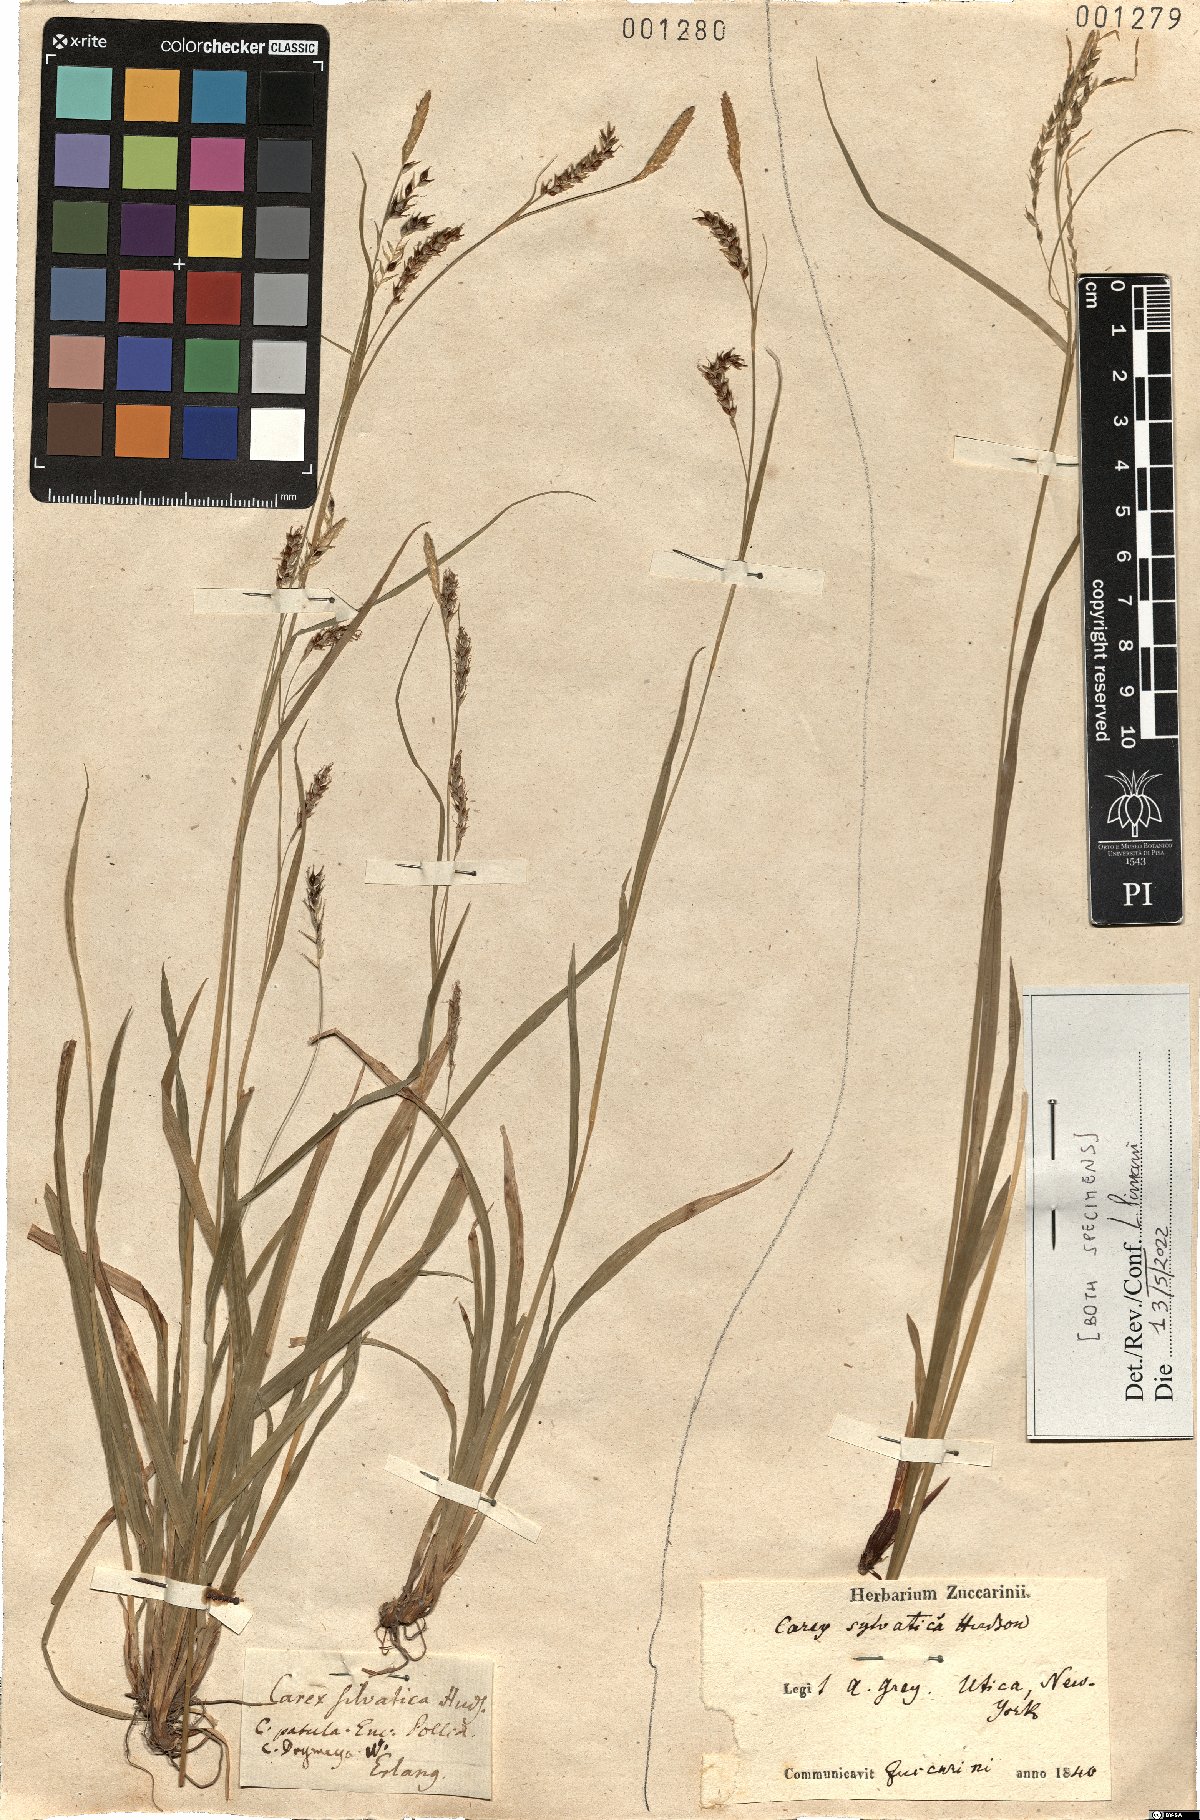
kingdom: Plantae
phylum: Tracheophyta
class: Liliopsida
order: Poales
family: Cyperaceae
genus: Carex
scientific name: Carex sylvatica
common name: Wood-sedge
